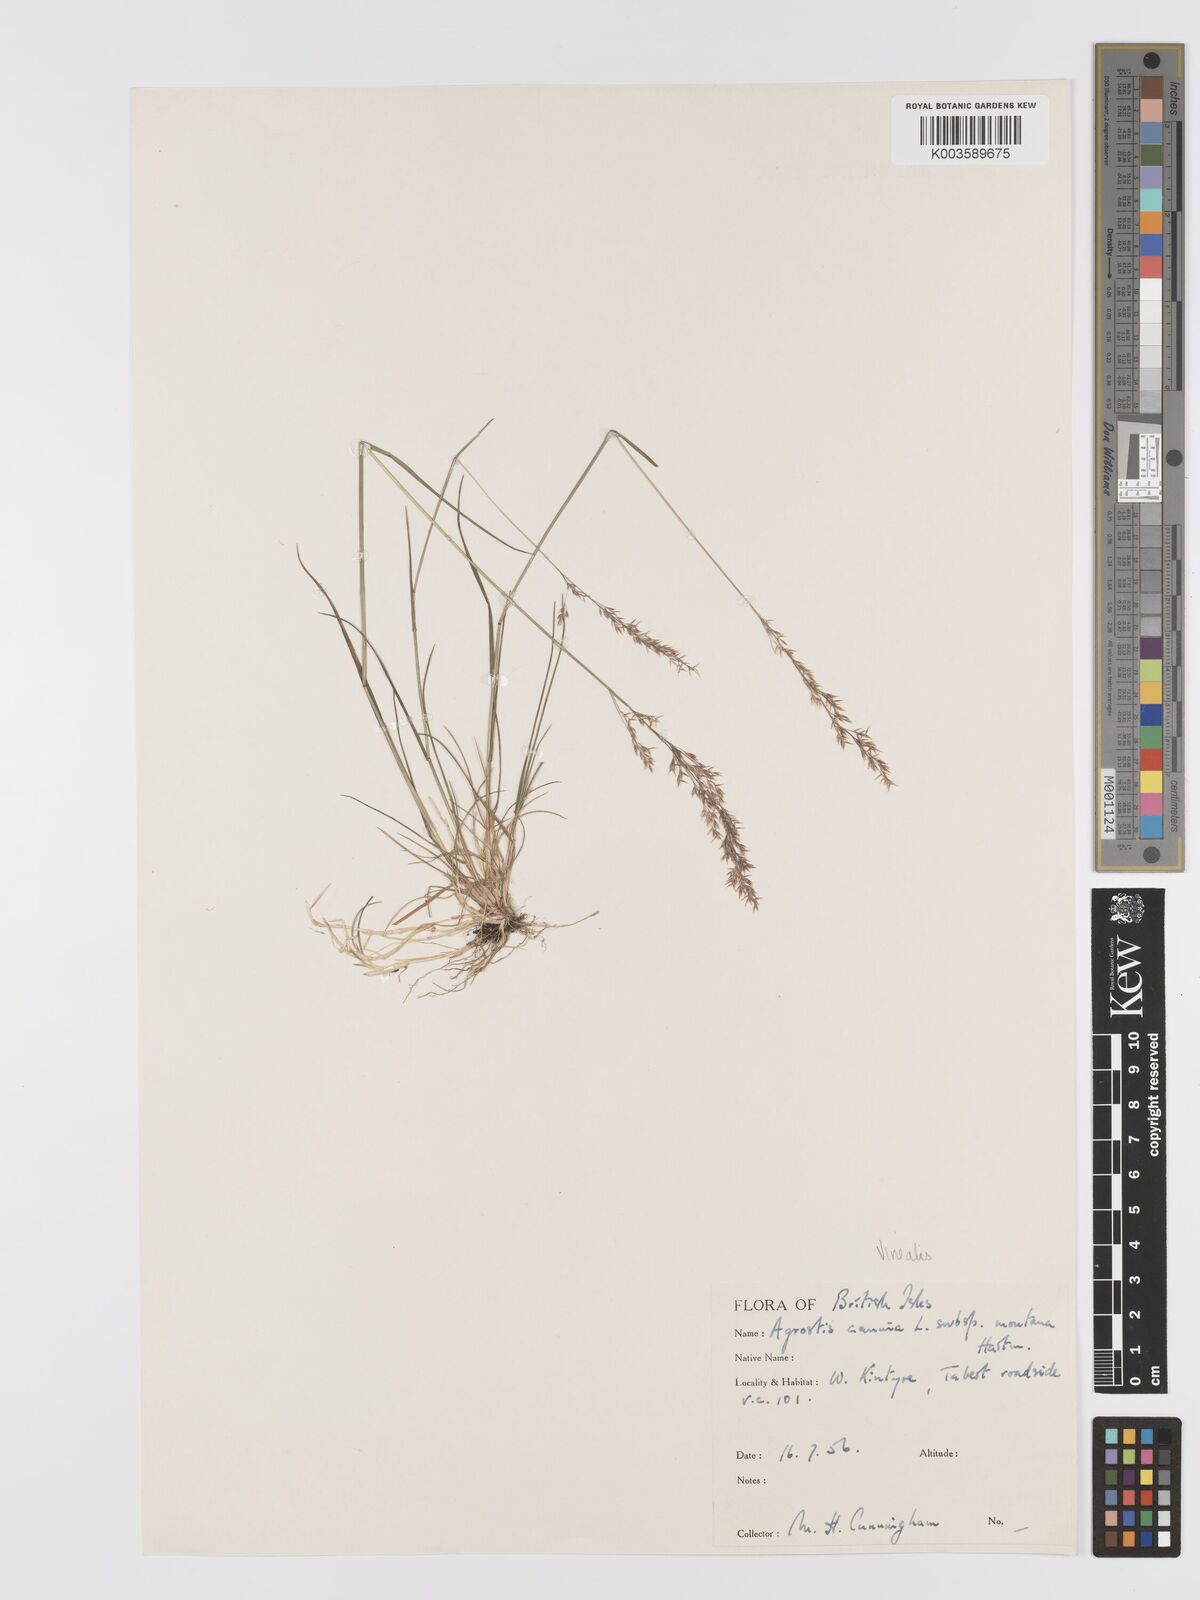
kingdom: Plantae
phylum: Tracheophyta
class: Liliopsida
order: Poales
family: Poaceae
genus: Agrostis
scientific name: Agrostis
